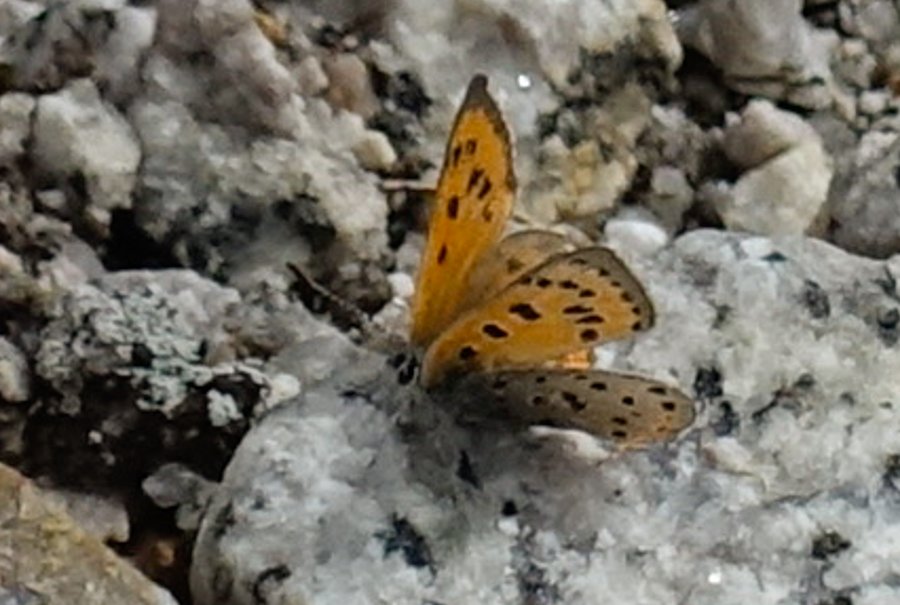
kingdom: Animalia
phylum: Arthropoda
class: Insecta
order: Lepidoptera
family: Lycaenidae
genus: Lycaena
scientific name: Lycaena cupreus
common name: Lustrous Copper
